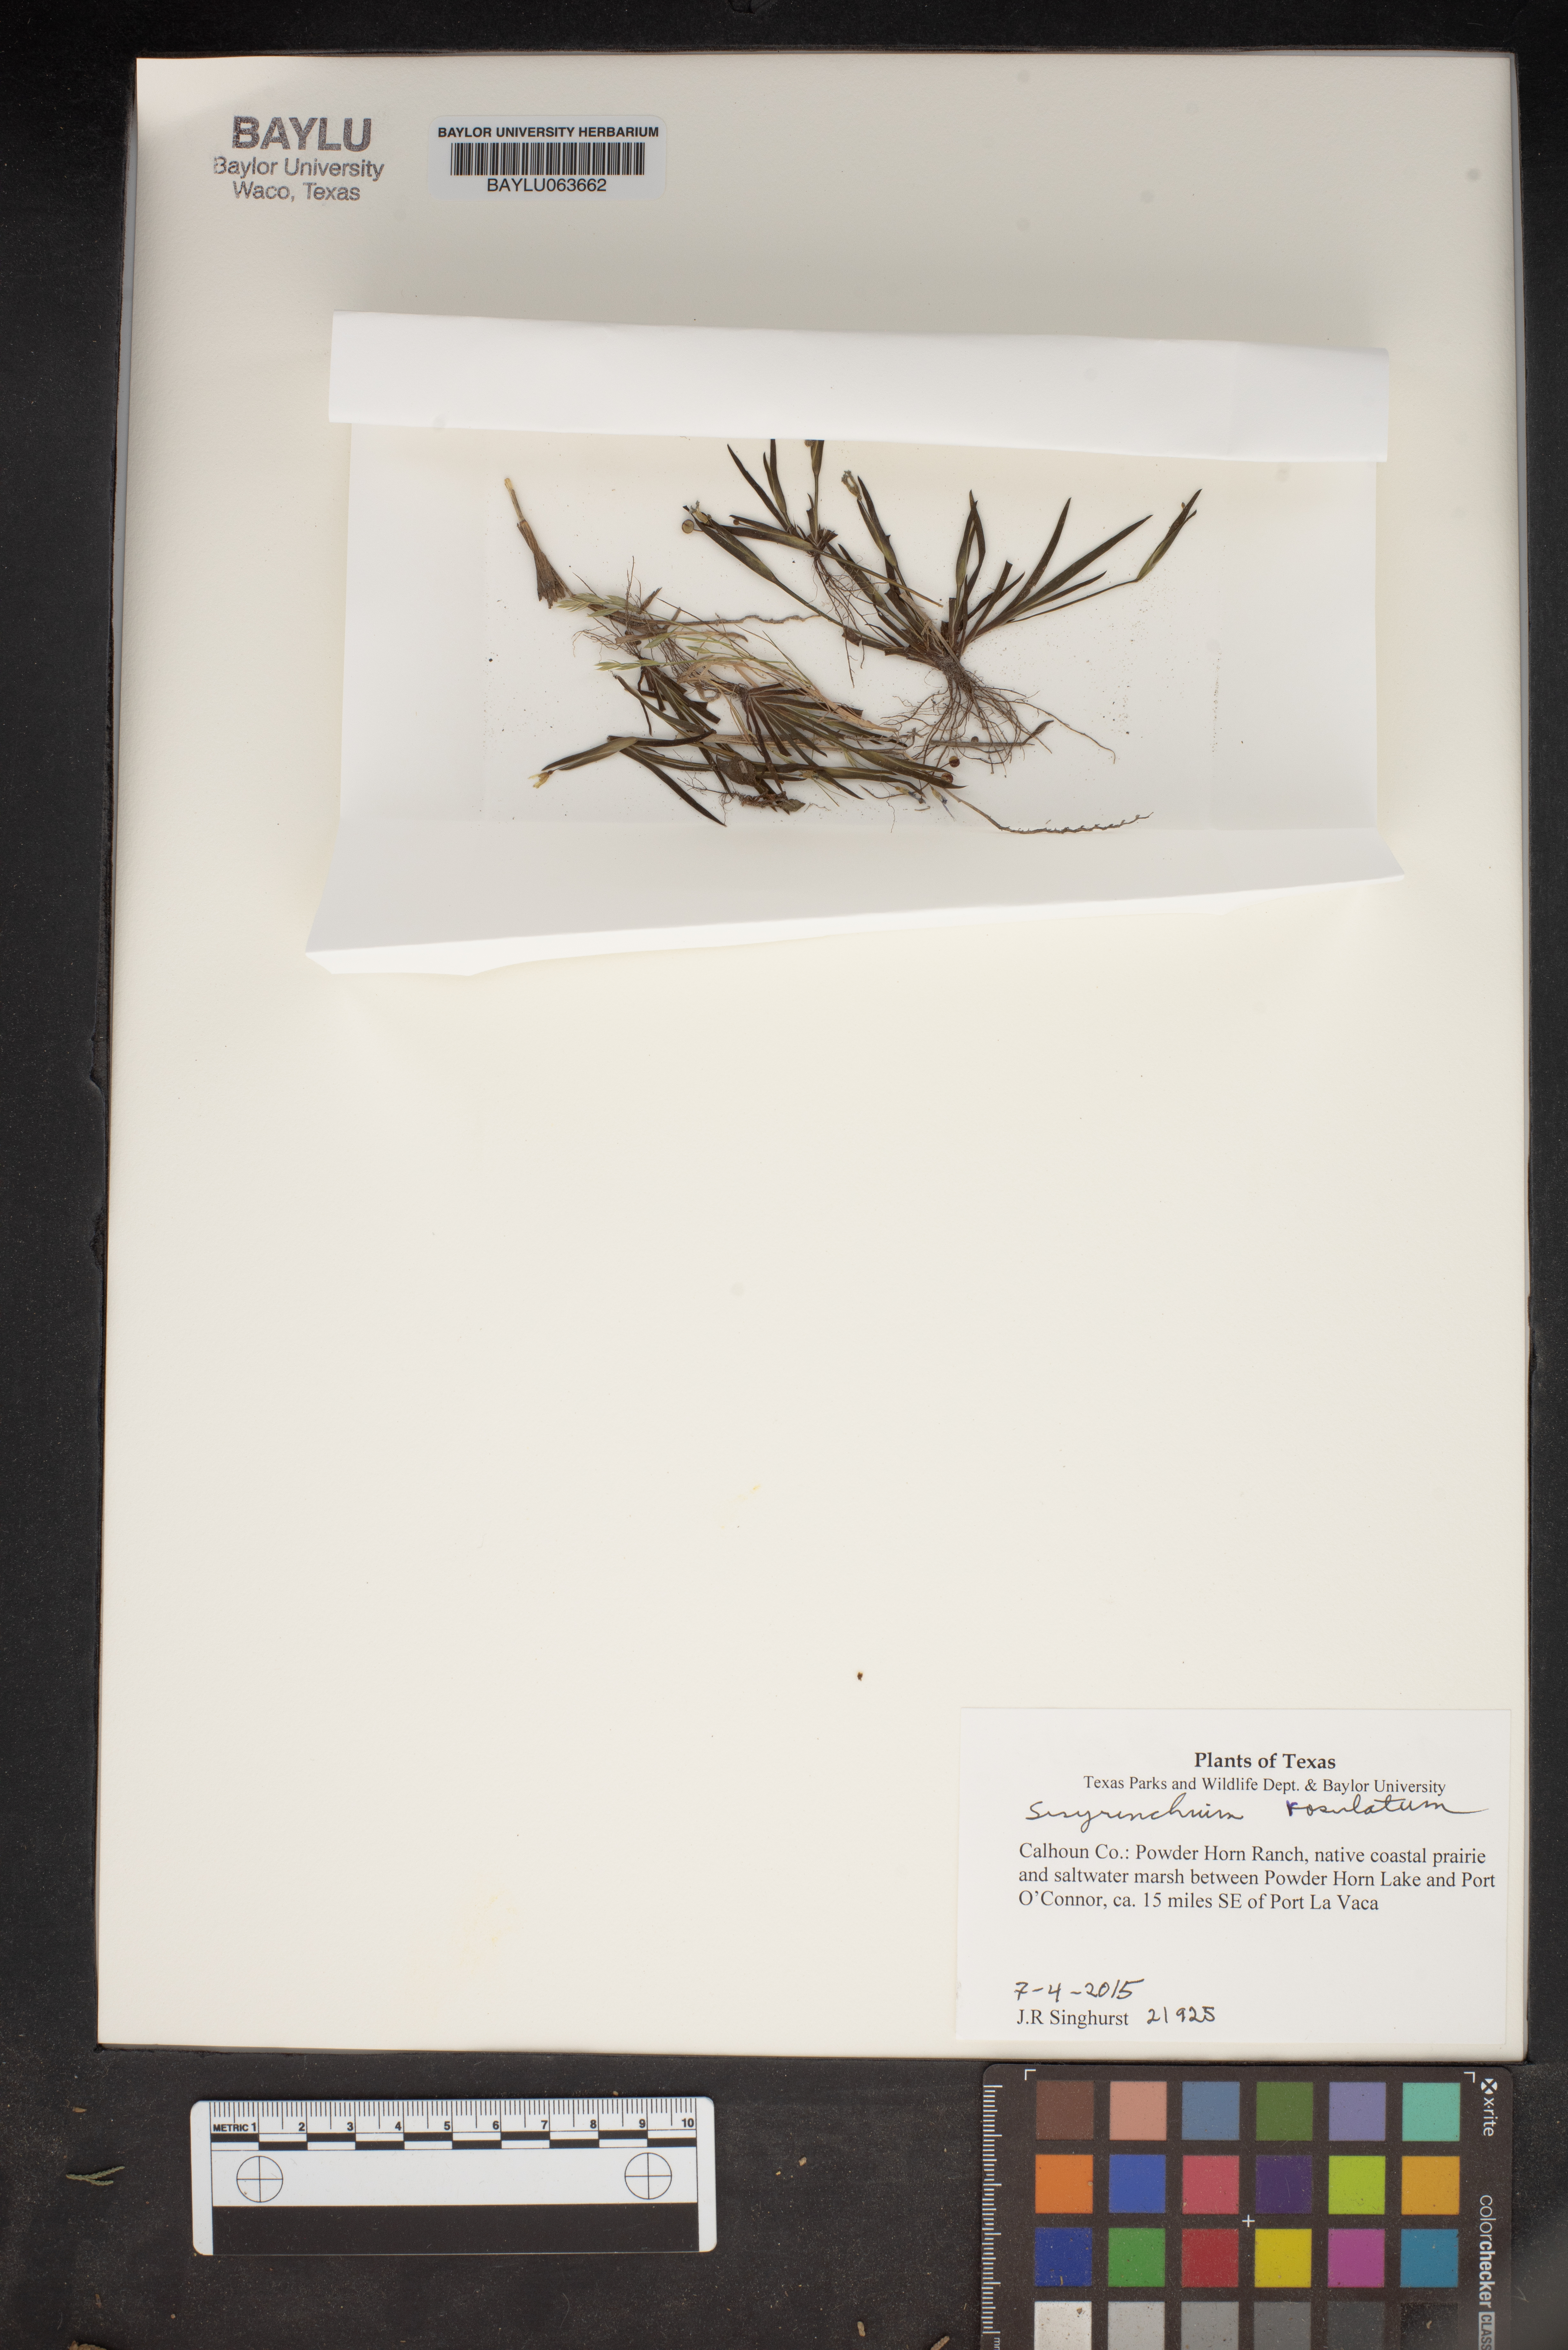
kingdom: Plantae
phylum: Tracheophyta
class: Liliopsida
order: Asparagales
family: Iridaceae
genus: Sisyrinchium
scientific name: Sisyrinchium rosulatum
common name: Annual blue-eyed grass
